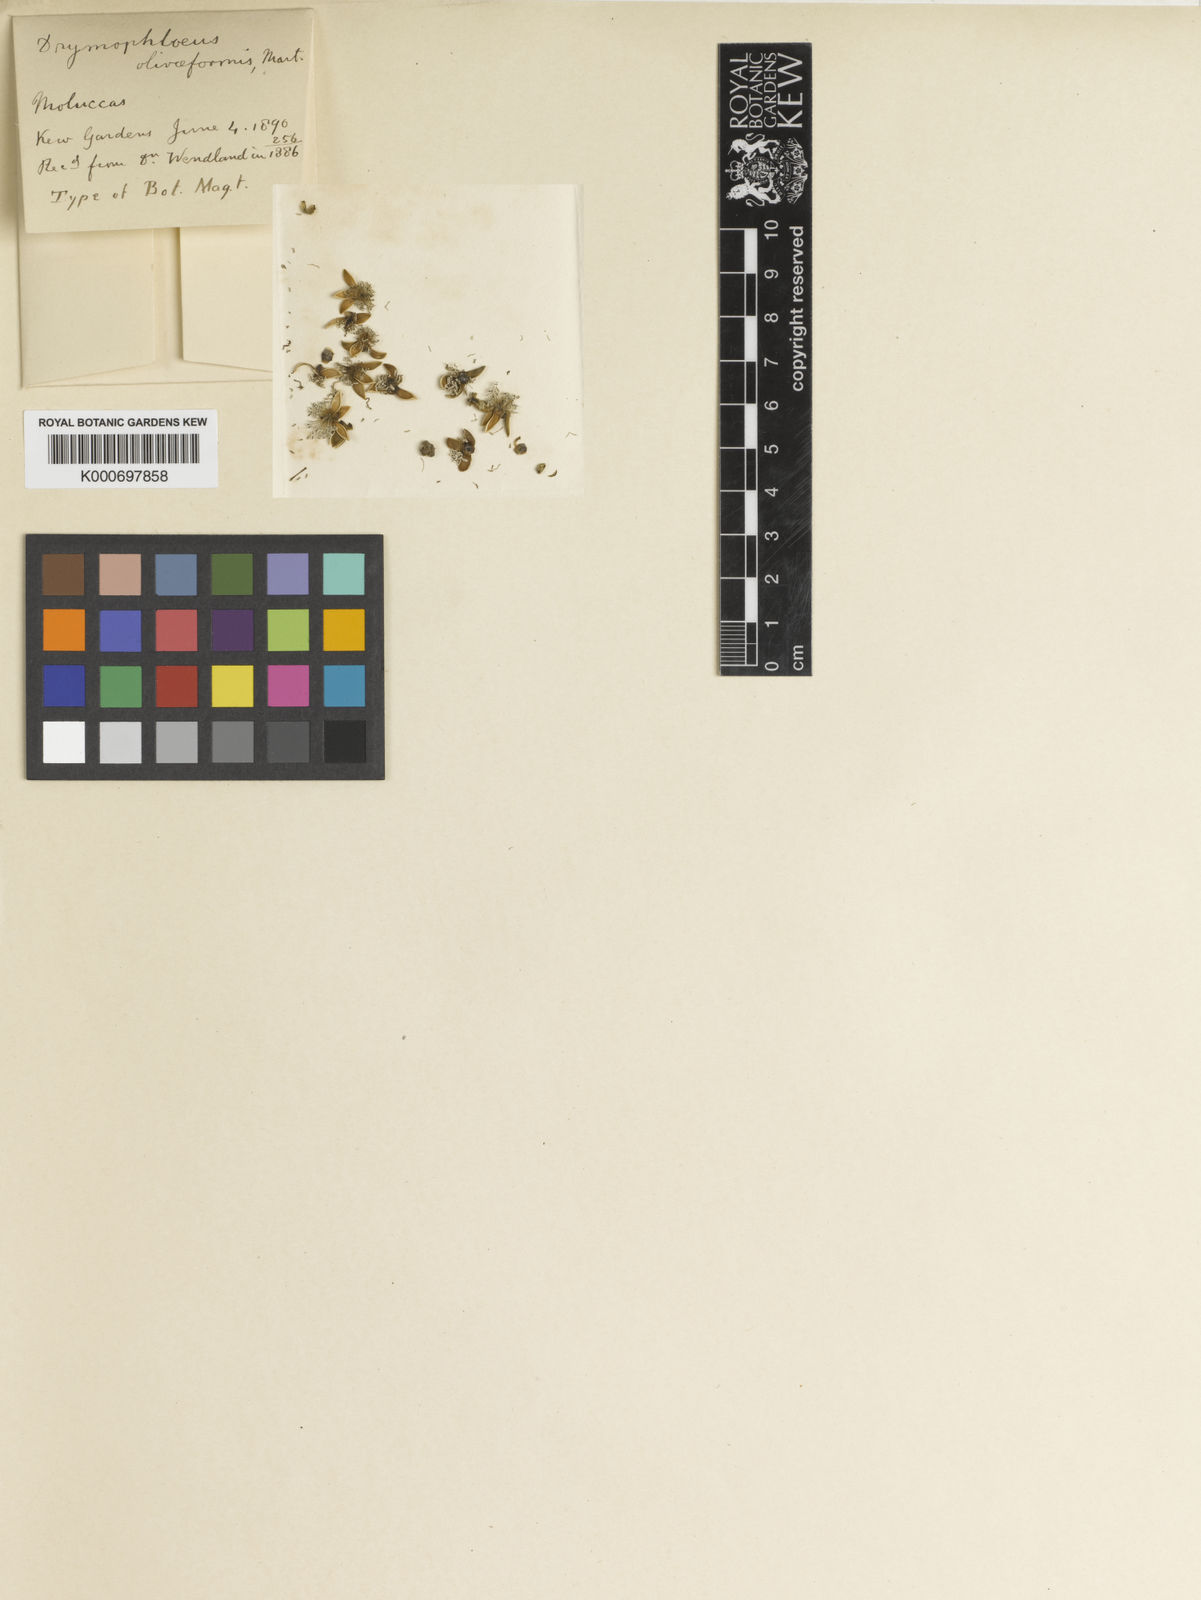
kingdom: Plantae
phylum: Tracheophyta
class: Liliopsida
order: Arecales
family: Arecaceae
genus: Drymophloeus
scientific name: Drymophloeus
